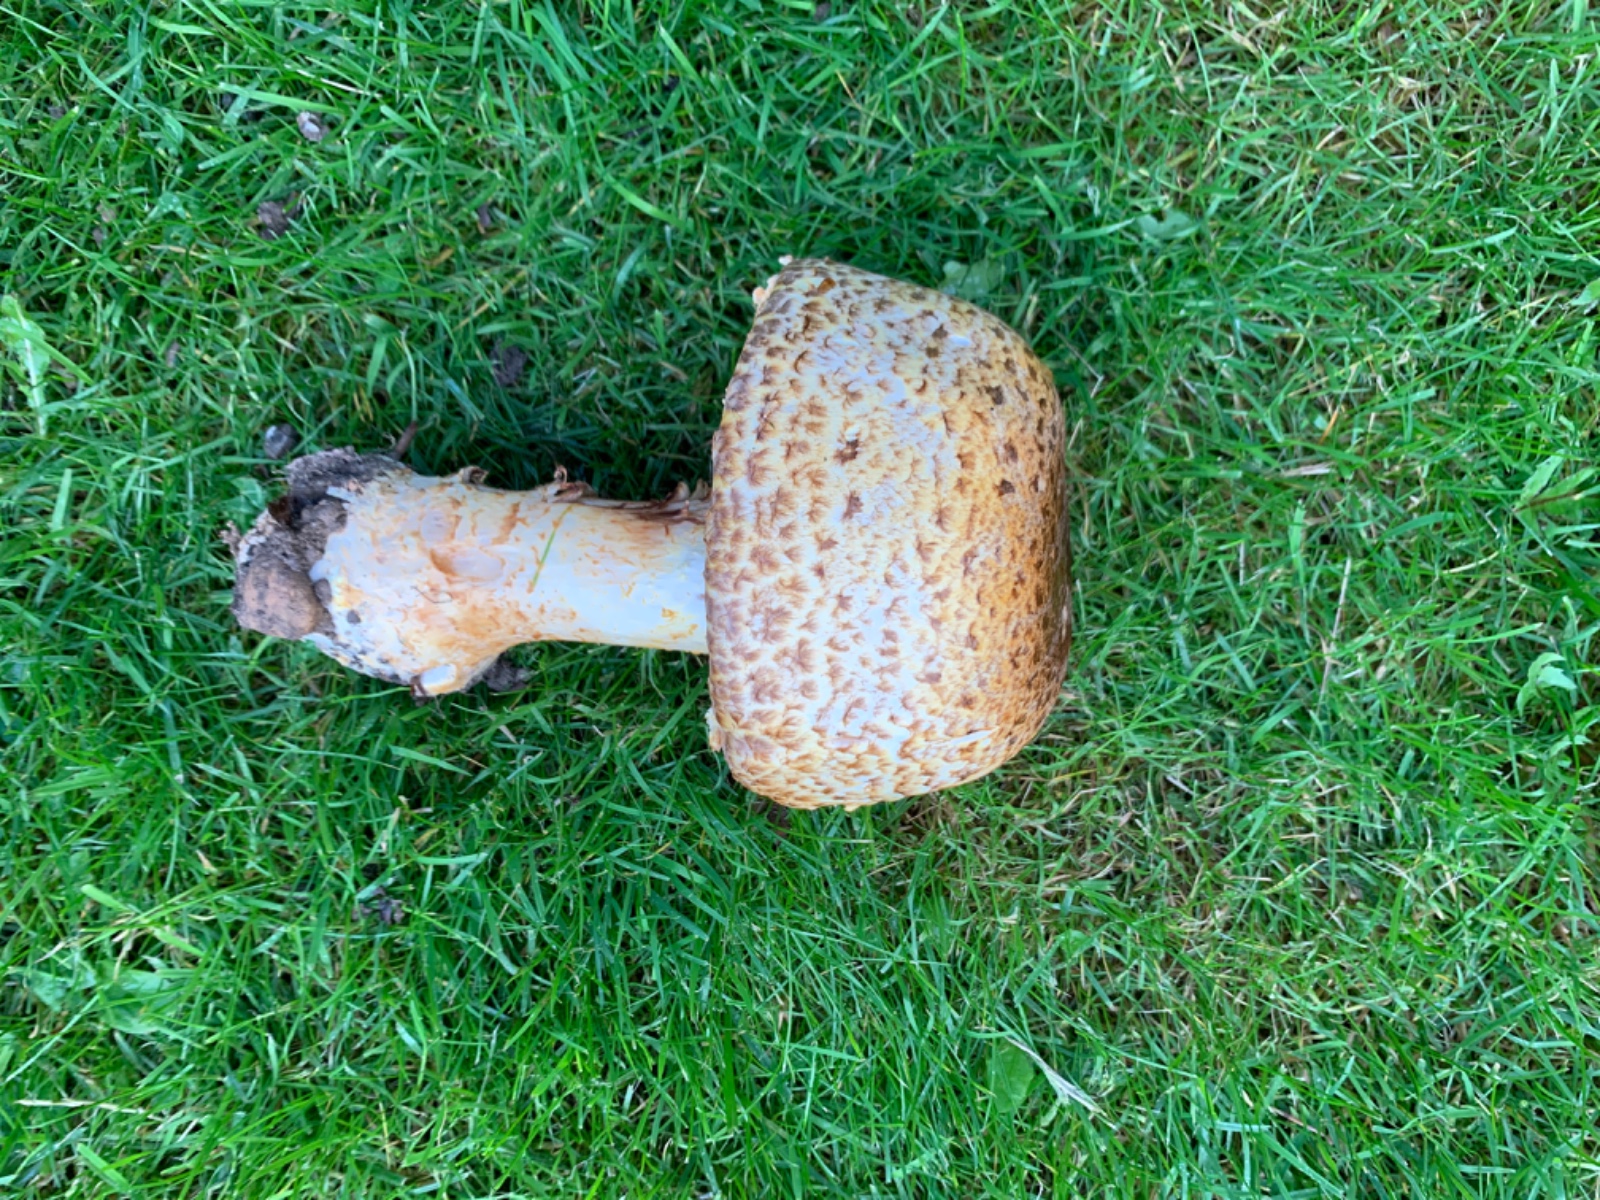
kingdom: Fungi
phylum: Basidiomycota
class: Agaricomycetes
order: Agaricales
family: Agaricaceae
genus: Agaricus
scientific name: Agaricus augustus
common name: prægtig champignon
